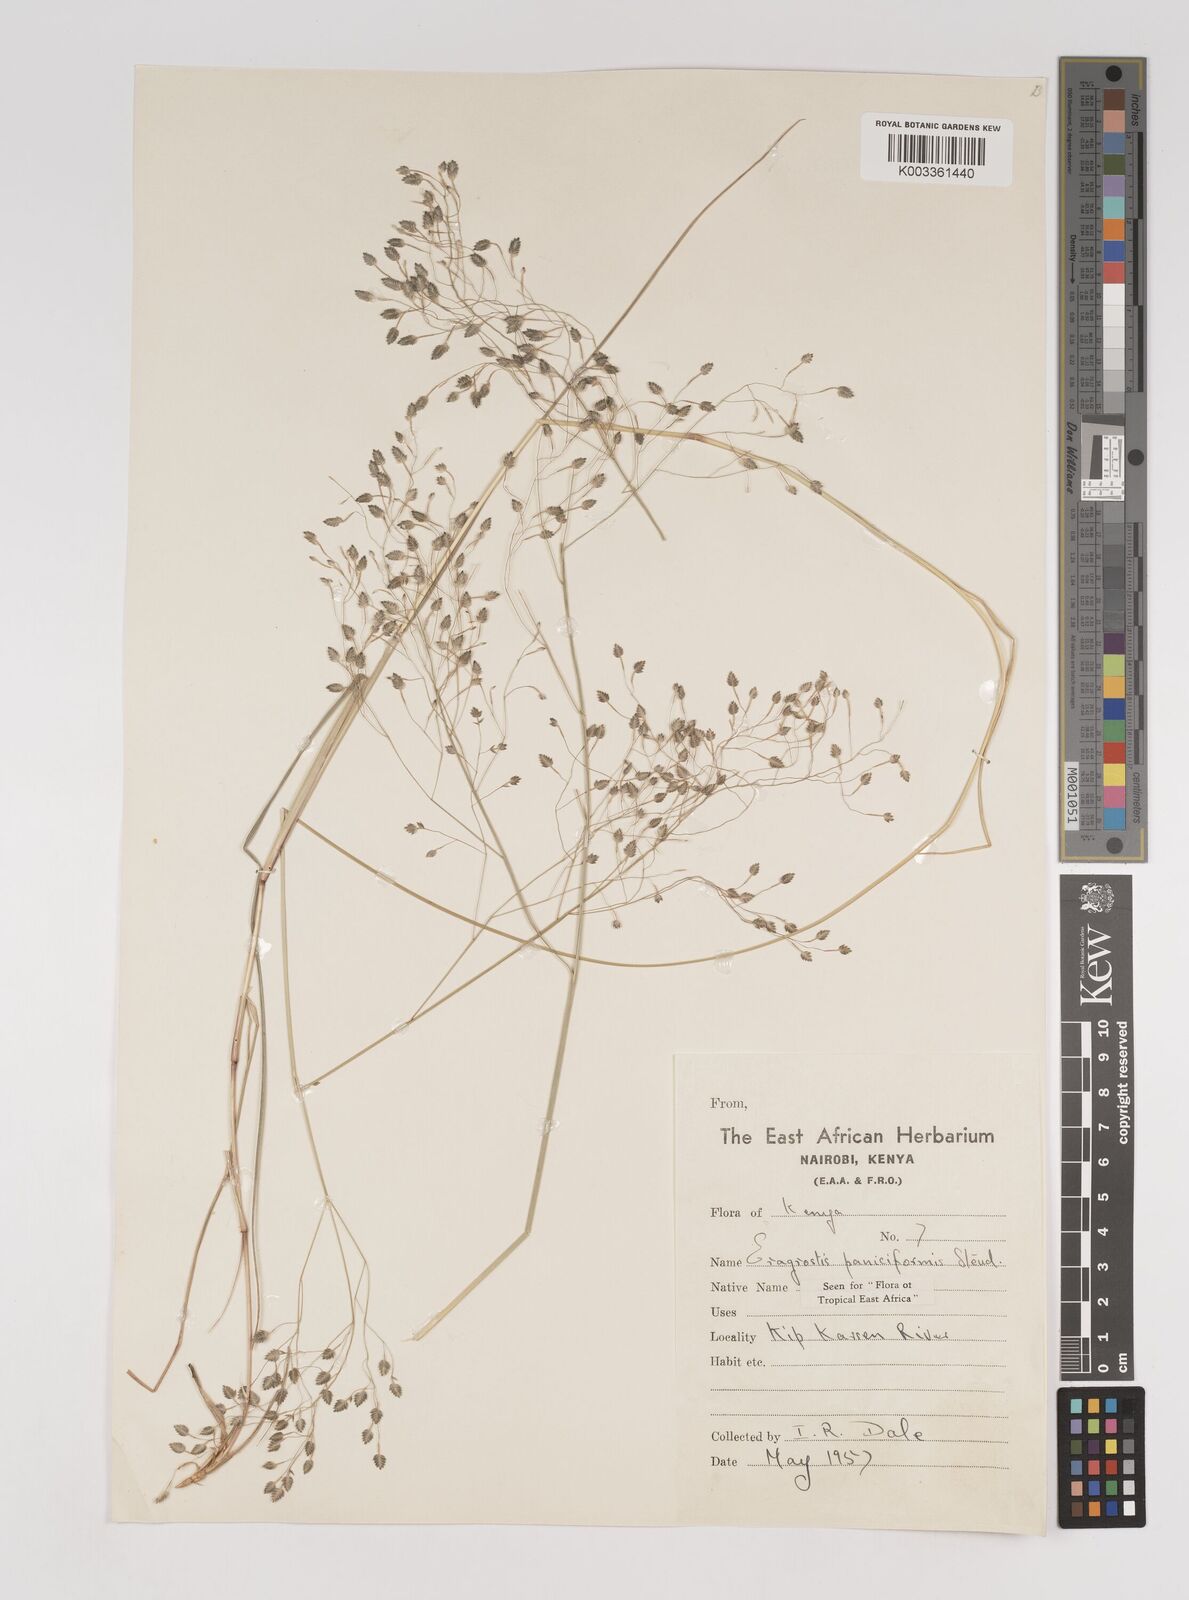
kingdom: Plantae
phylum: Tracheophyta
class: Liliopsida
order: Poales
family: Poaceae
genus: Eragrostis
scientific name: Eragrostis paniciformis
